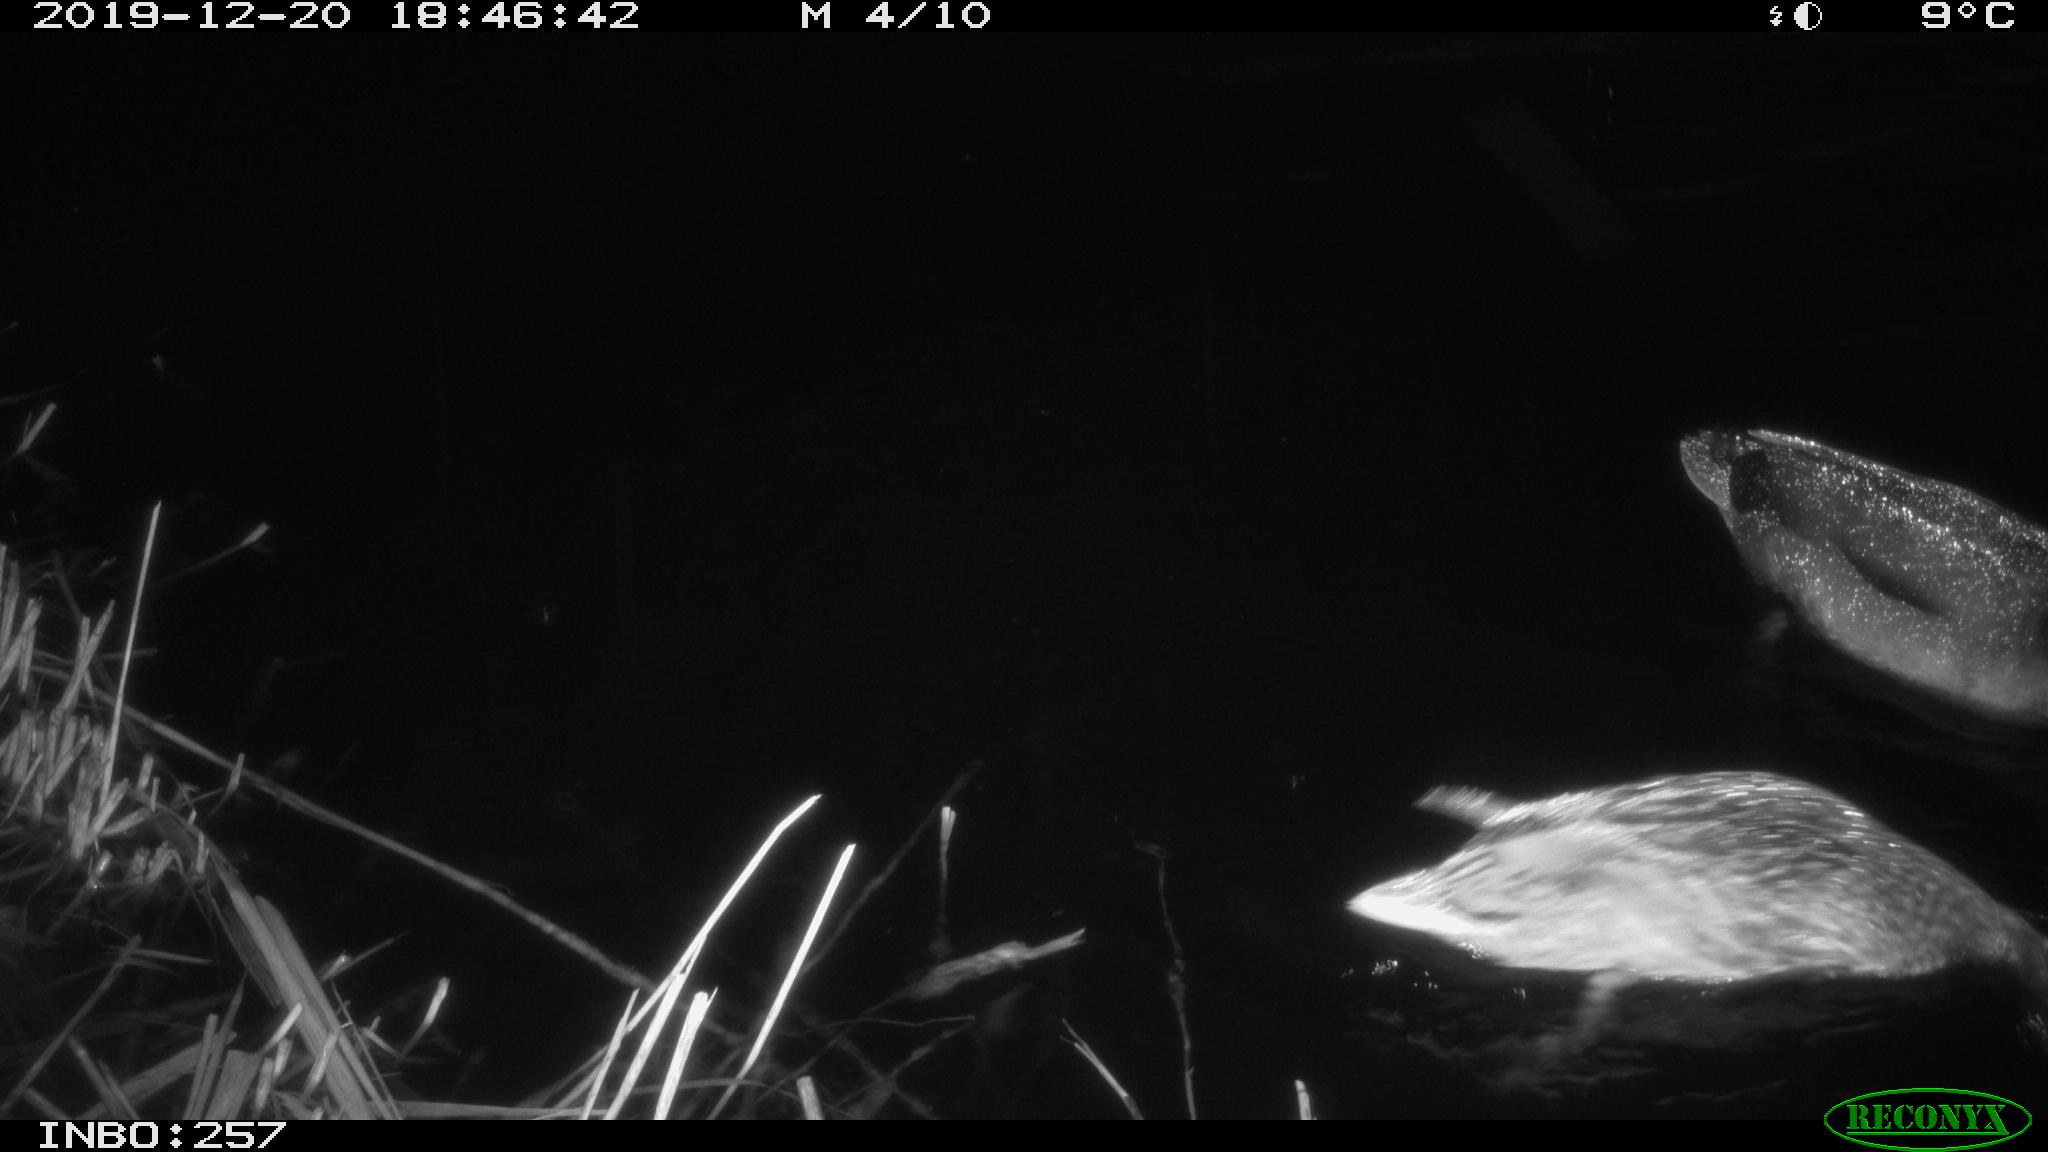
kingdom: Animalia
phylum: Chordata
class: Aves
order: Anseriformes
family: Anatidae
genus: Anas
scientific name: Anas platyrhynchos
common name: Mallard
